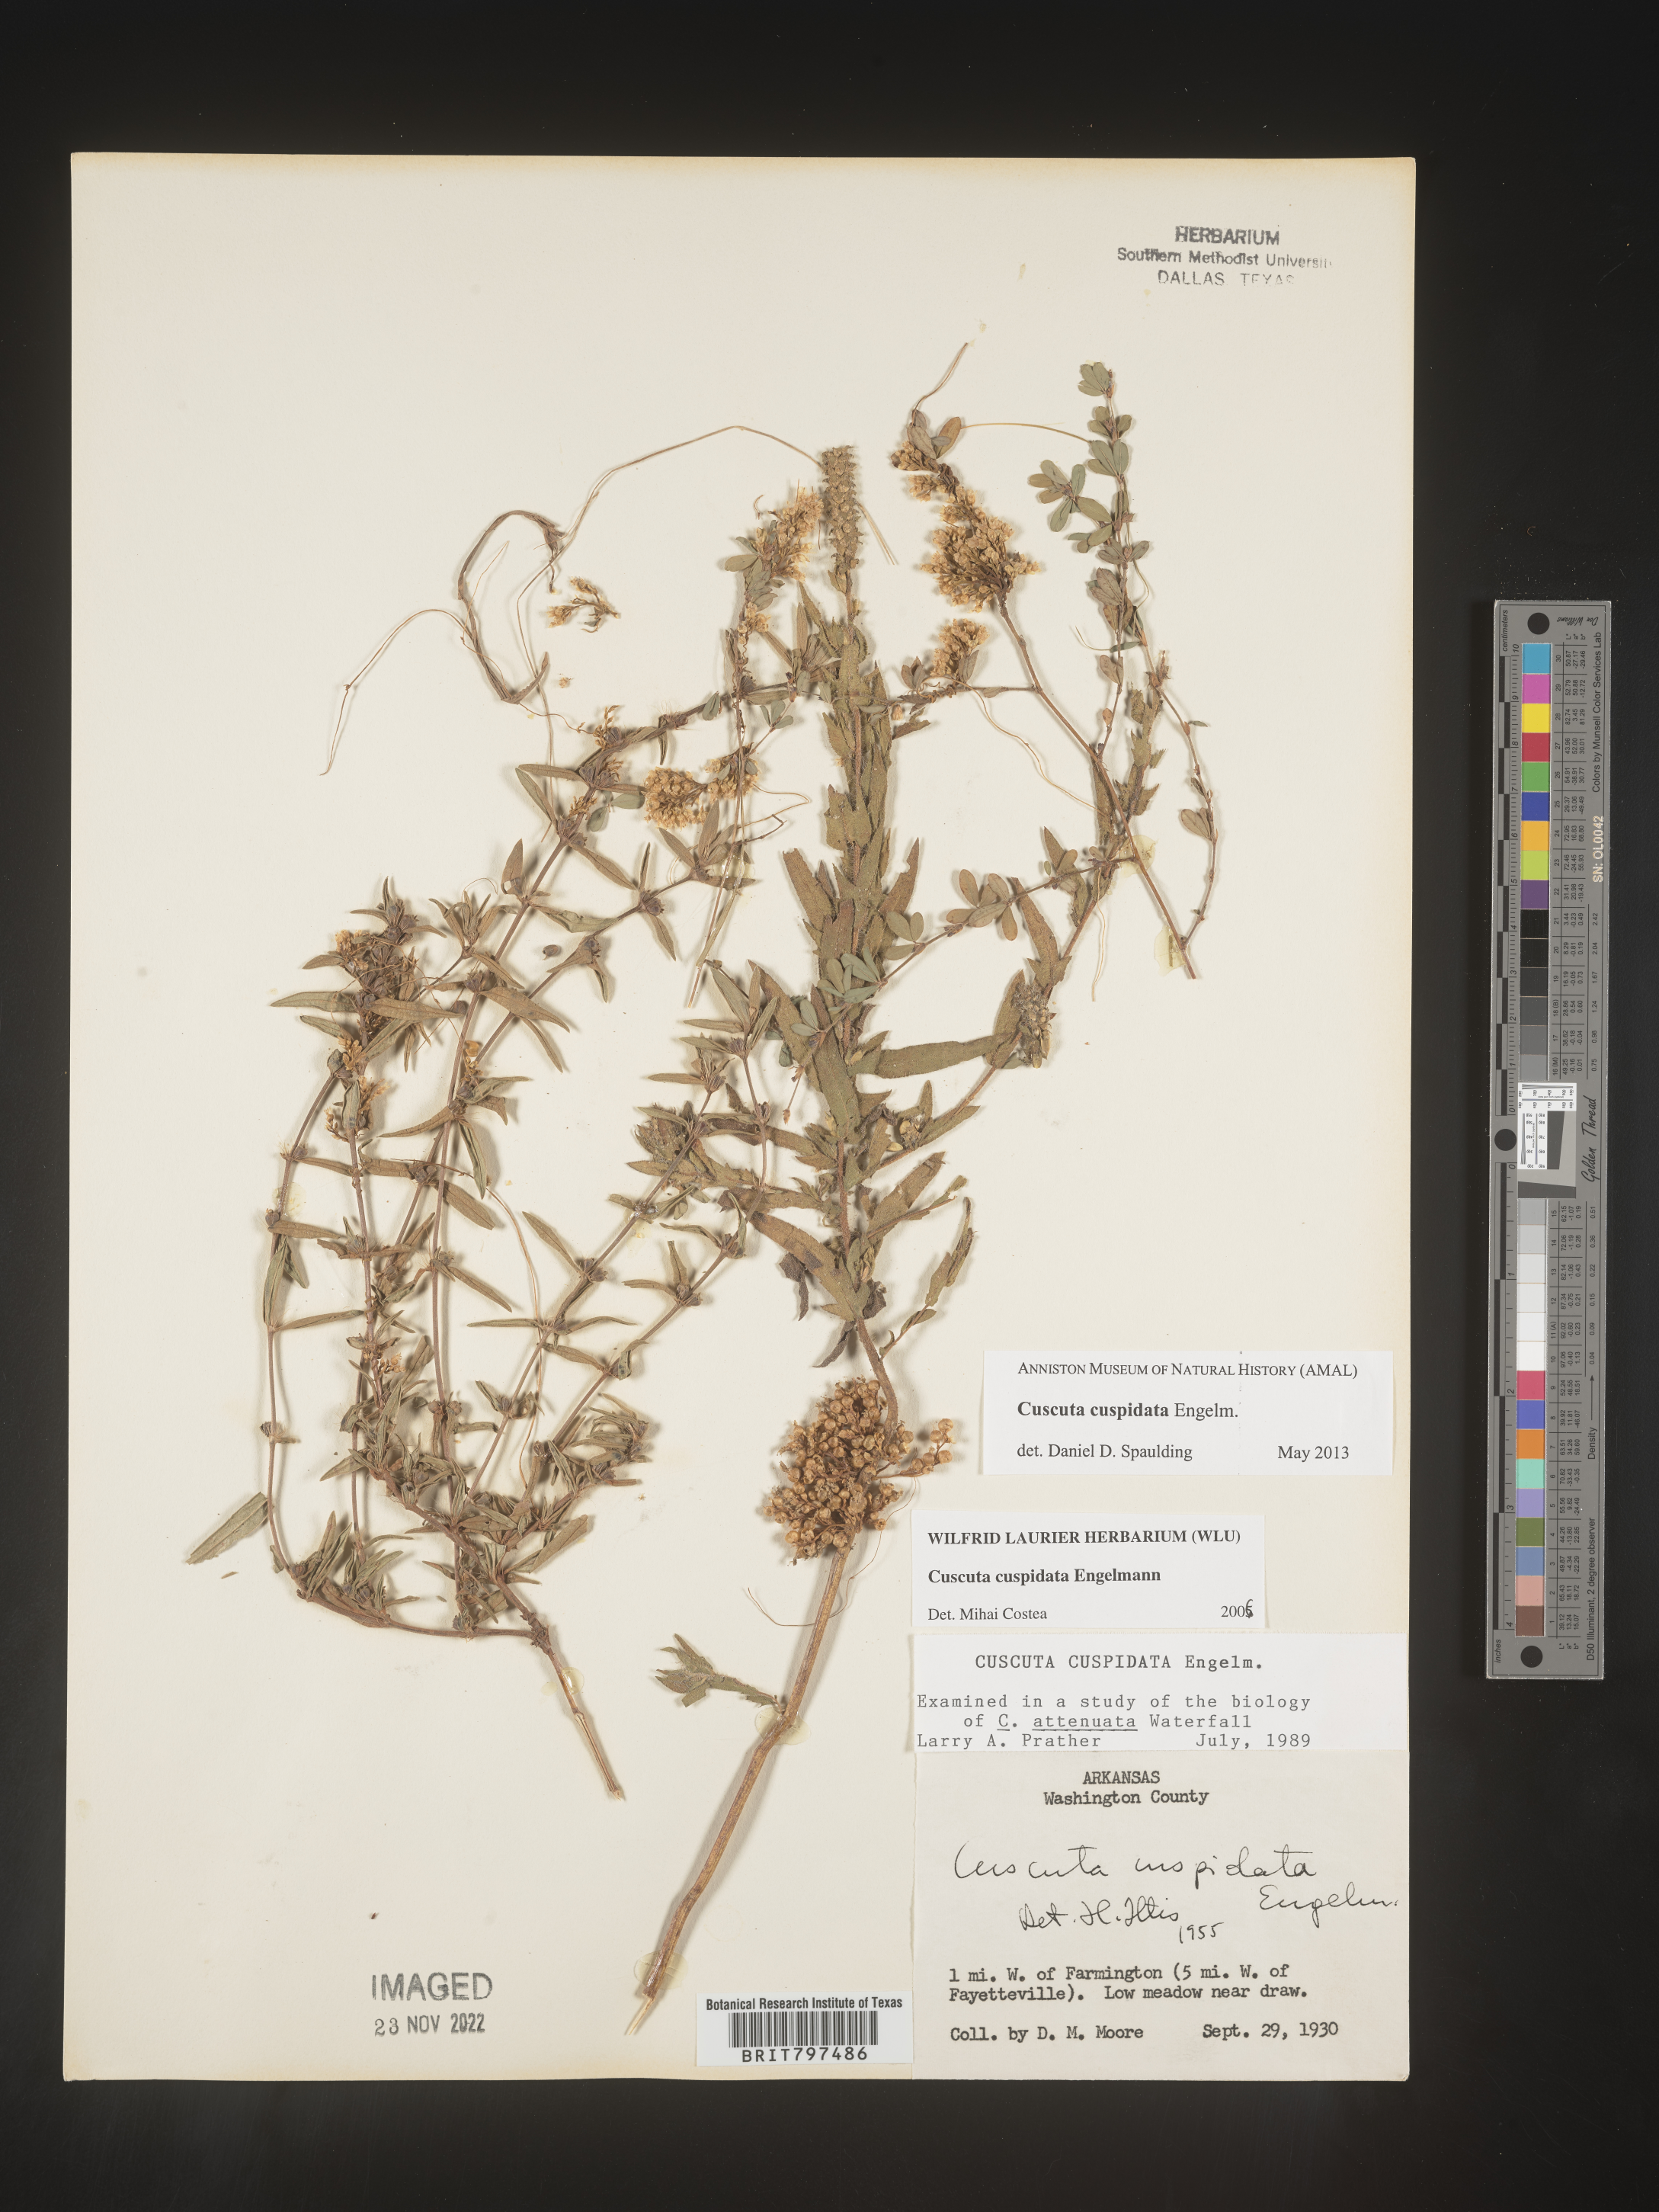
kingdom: Plantae
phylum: Tracheophyta
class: Magnoliopsida
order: Solanales
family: Convolvulaceae
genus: Cuscuta
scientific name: Cuscuta cuspidata
